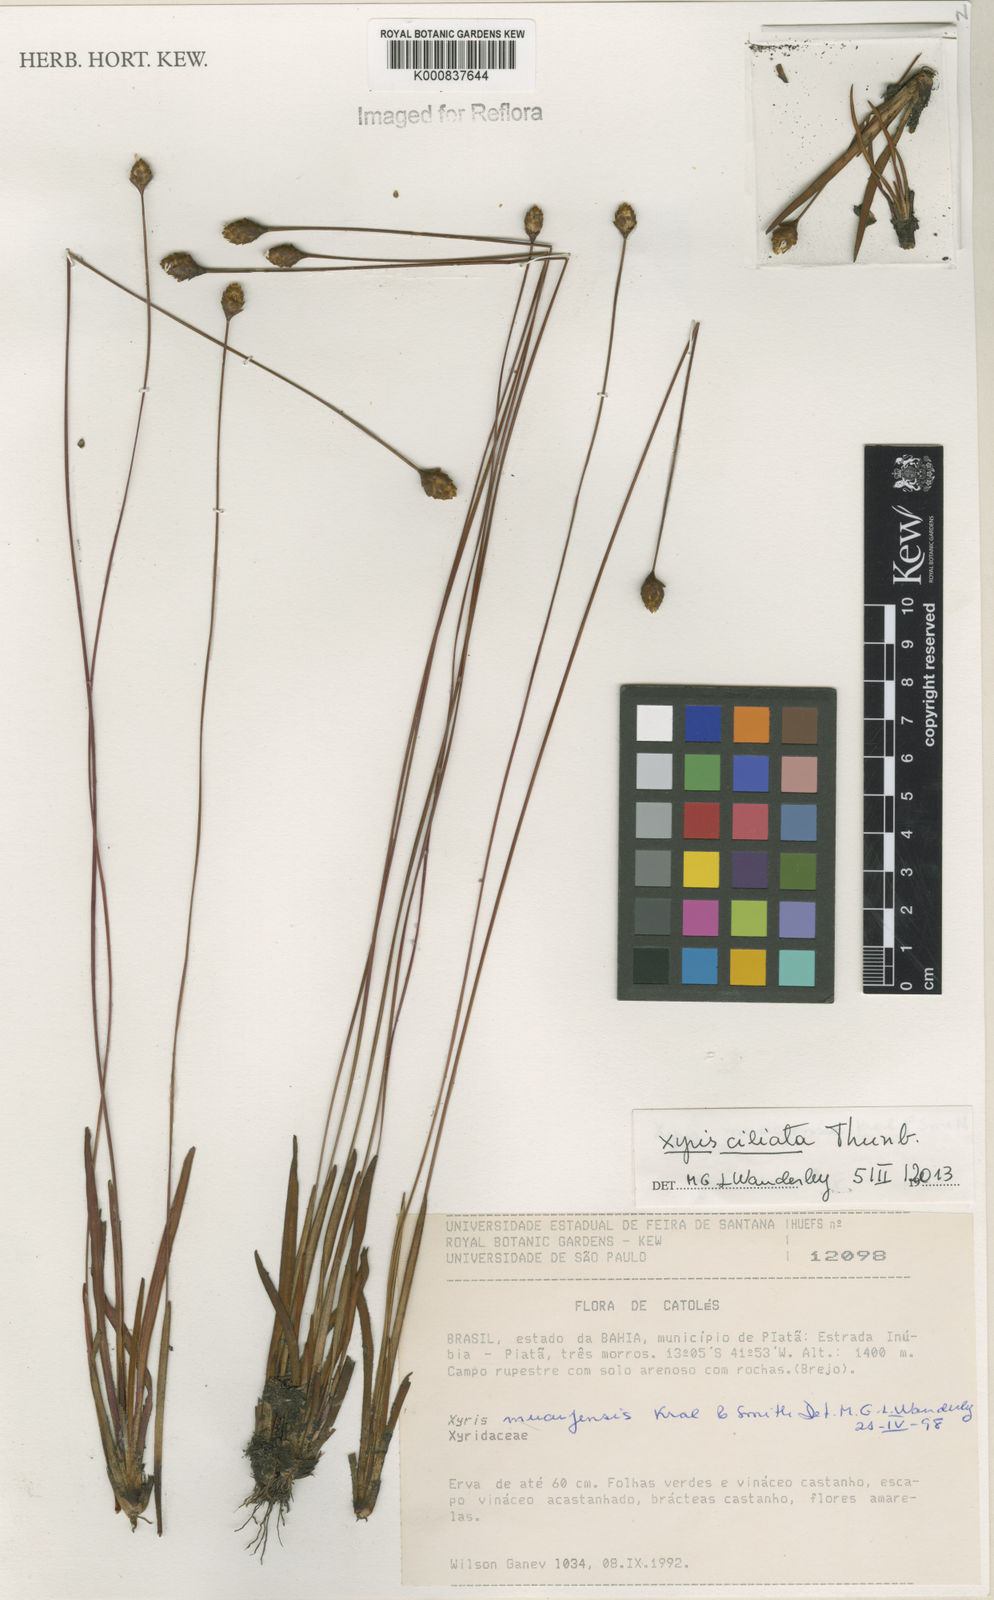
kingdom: Plantae
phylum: Tracheophyta
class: Liliopsida
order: Poales
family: Xyridaceae
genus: Xyris
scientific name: Xyris ciliata
